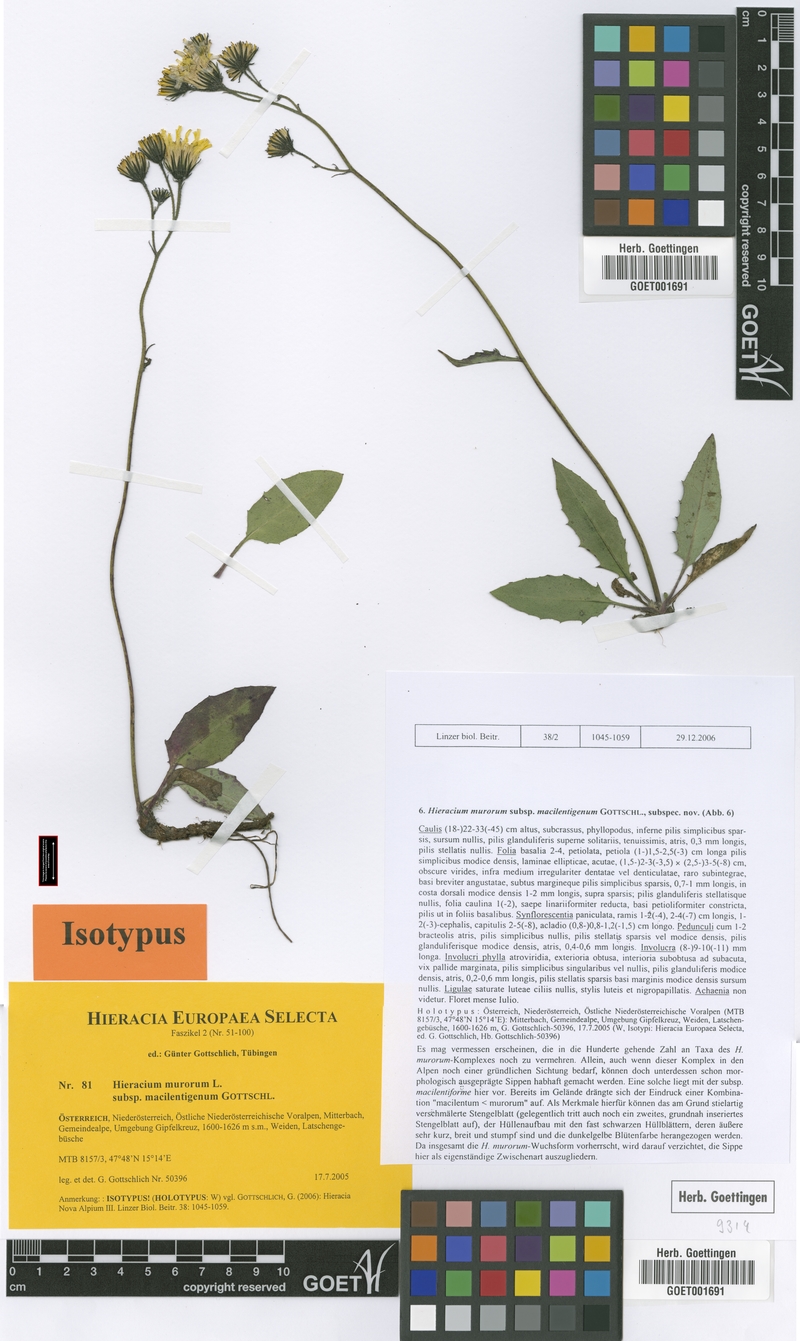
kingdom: Plantae
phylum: Tracheophyta
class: Magnoliopsida
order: Asterales
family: Asteraceae
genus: Hieracium
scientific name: Hieracium murorum
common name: Wall hawkweed
